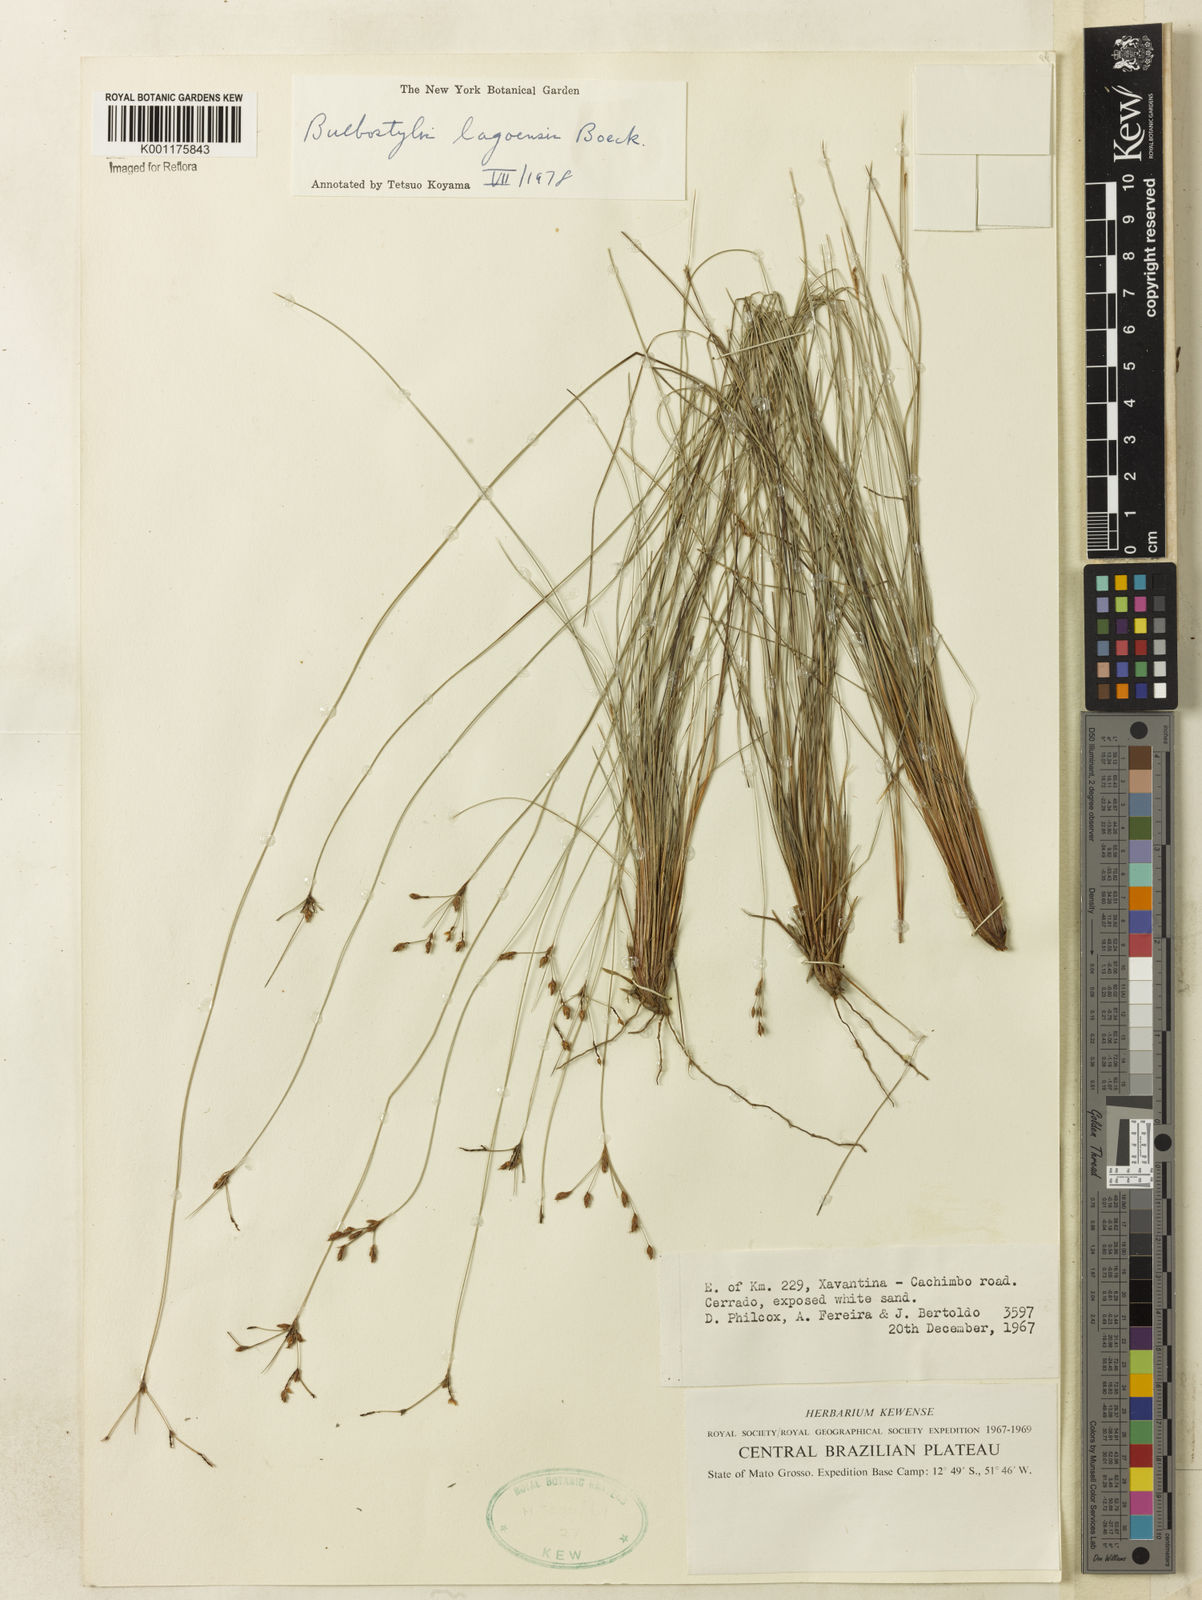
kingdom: Plantae
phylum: Tracheophyta
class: Liliopsida
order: Poales
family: Cyperaceae
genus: Bulbostylis
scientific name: Bulbostylis lagoensis
